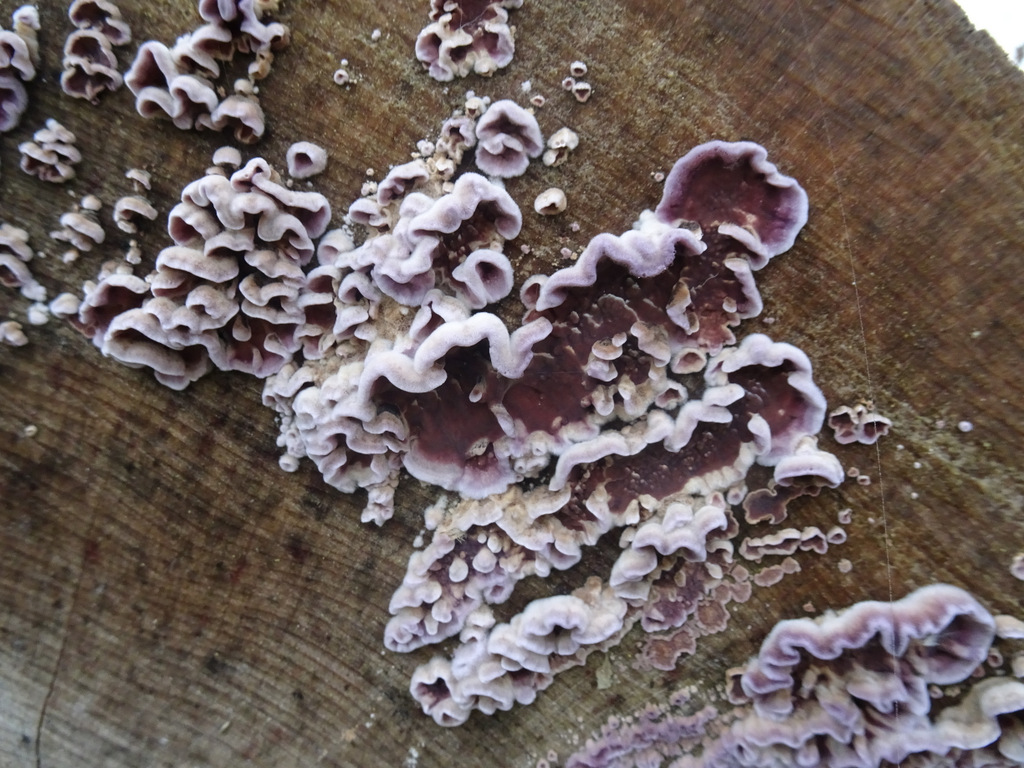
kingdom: Fungi
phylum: Basidiomycota
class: Agaricomycetes
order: Agaricales
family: Cyphellaceae
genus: Chondrostereum
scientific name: Chondrostereum purpureum
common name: purpurlædersvamp
